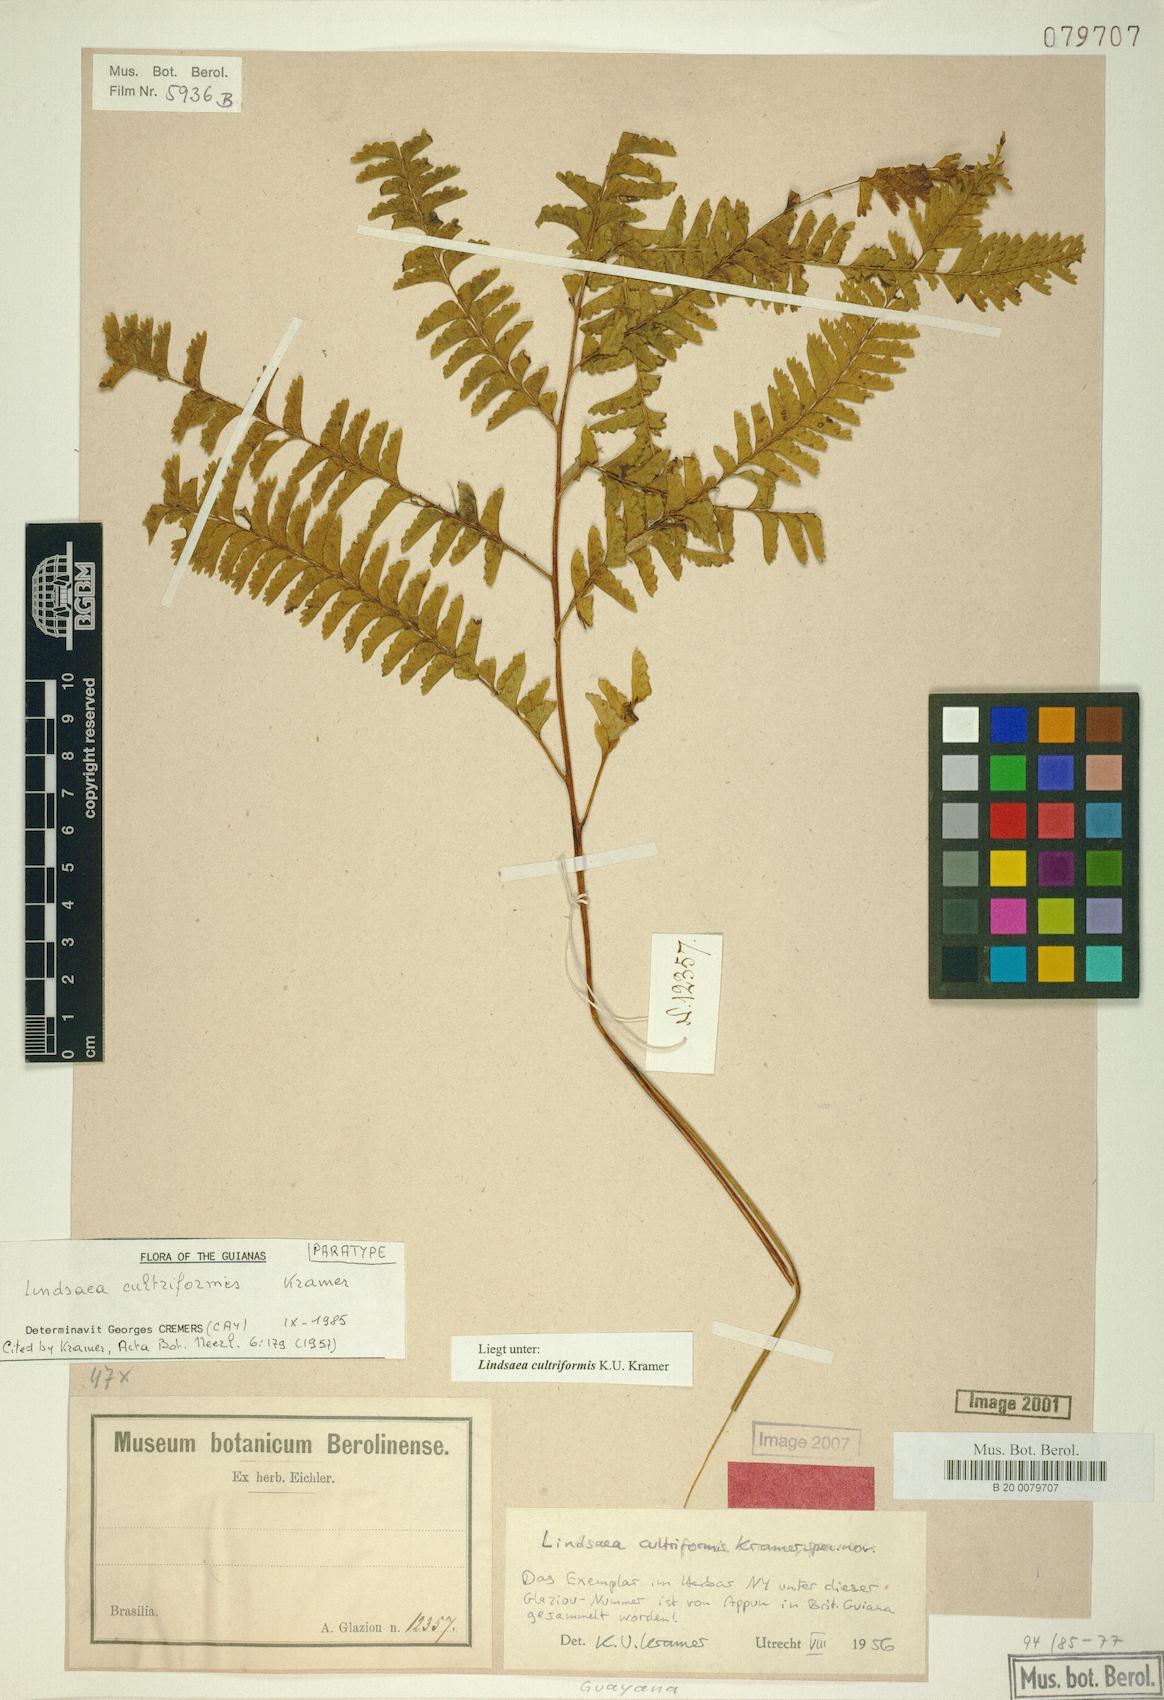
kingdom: Plantae
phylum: Tracheophyta
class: Polypodiopsida
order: Polypodiales
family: Lindsaeaceae
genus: Lindsaea
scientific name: Lindsaea cultriformis
